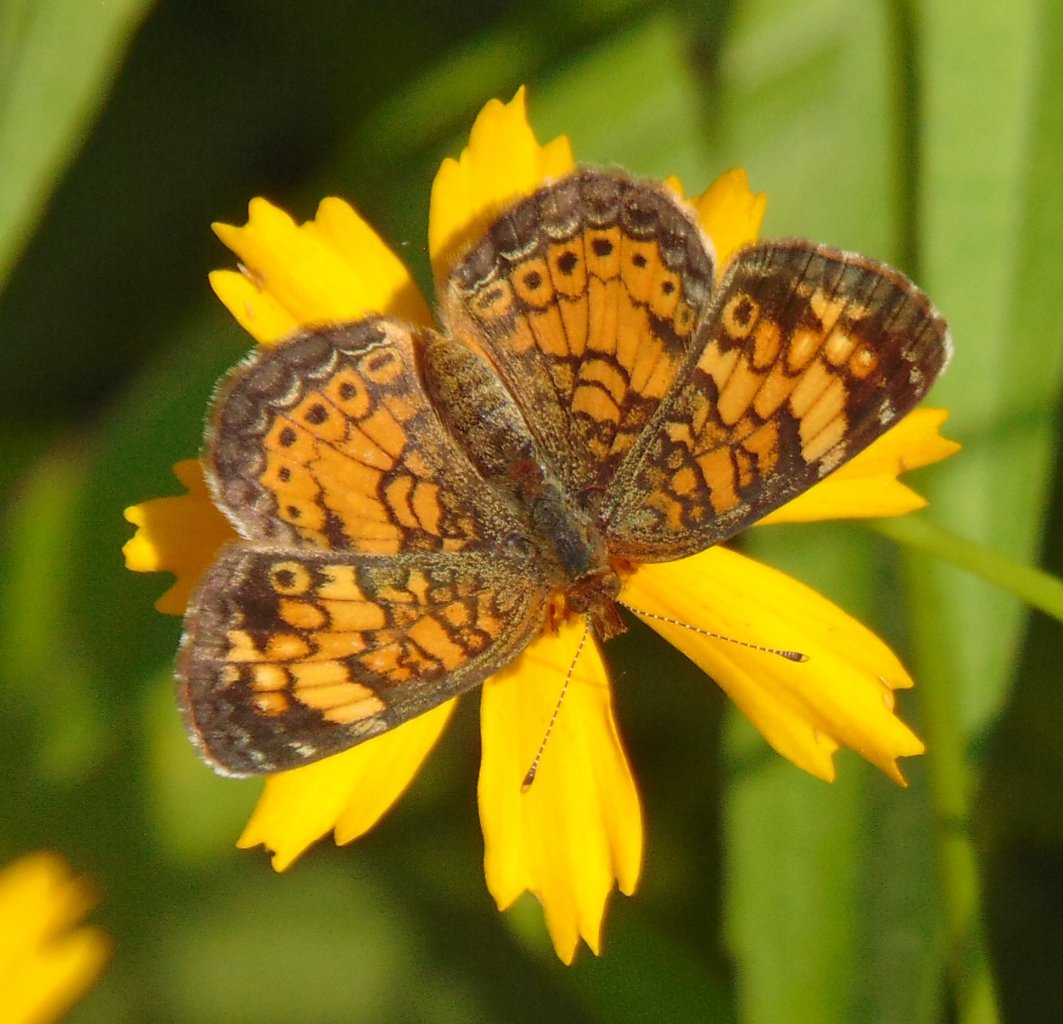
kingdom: Animalia
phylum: Arthropoda
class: Insecta
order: Lepidoptera
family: Nymphalidae
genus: Phyciodes
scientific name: Phyciodes tharos
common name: Pearl Crescent
